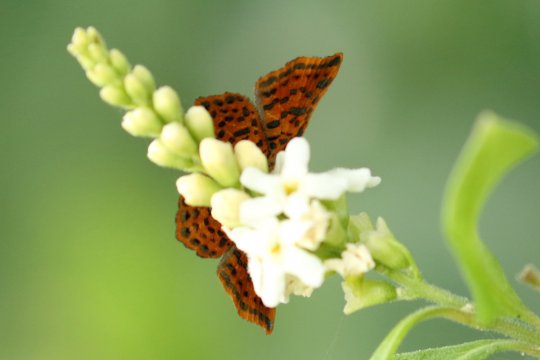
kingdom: Animalia
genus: Caria
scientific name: Caria ino
